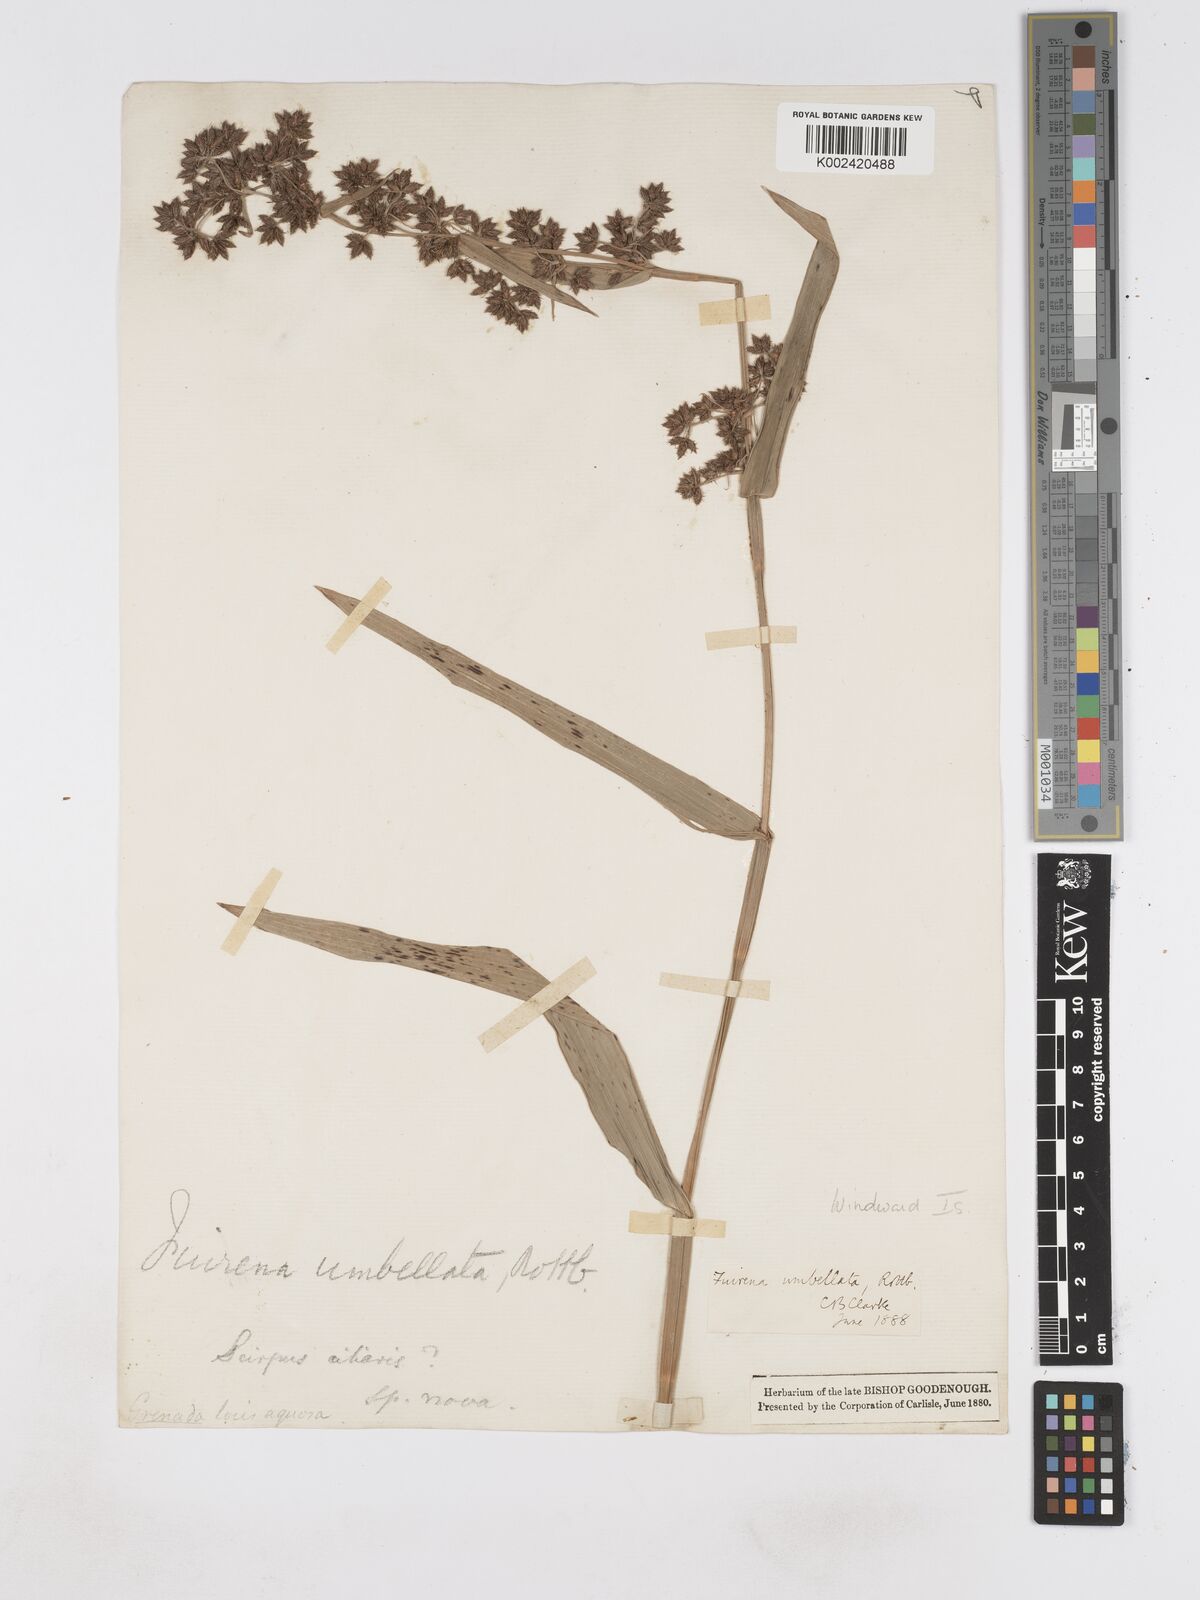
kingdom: Plantae
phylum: Tracheophyta
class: Liliopsida
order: Poales
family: Cyperaceae
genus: Fuirena
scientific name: Fuirena umbellata
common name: Yefen
